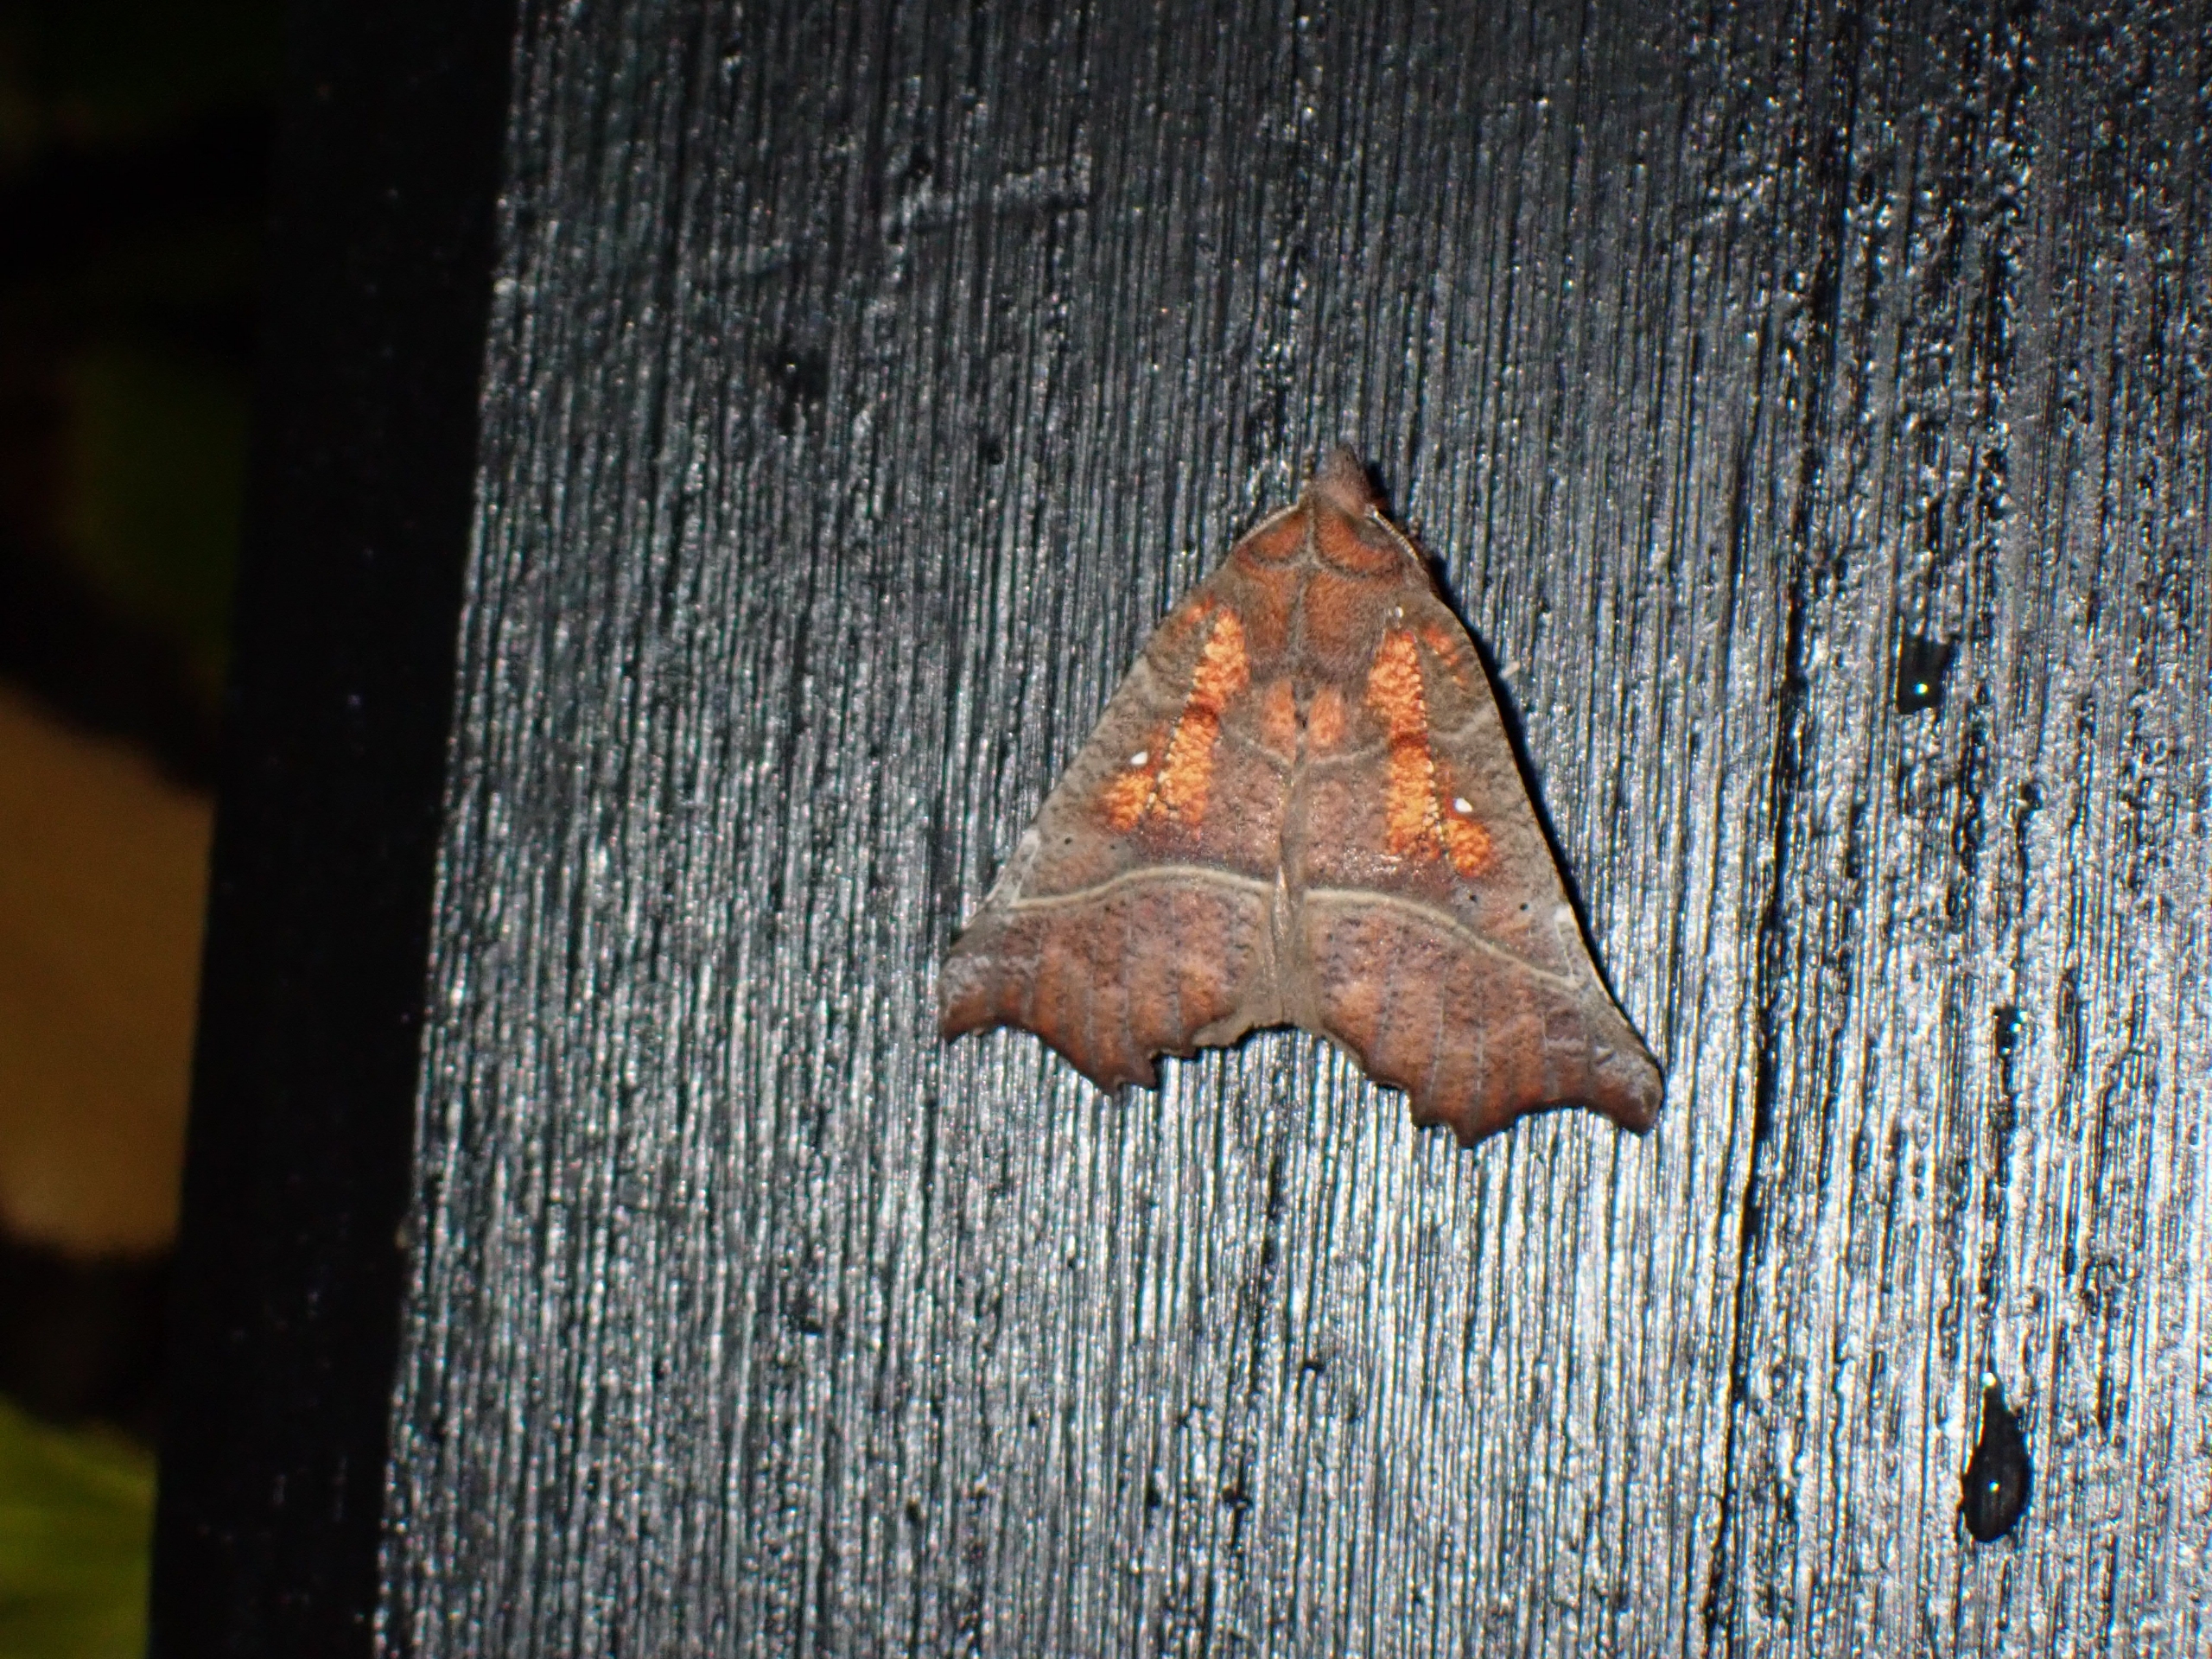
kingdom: Animalia
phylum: Arthropoda
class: Insecta
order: Lepidoptera
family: Erebidae
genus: Scoliopteryx
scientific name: Scoliopteryx libatrix
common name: Husmoderugle
